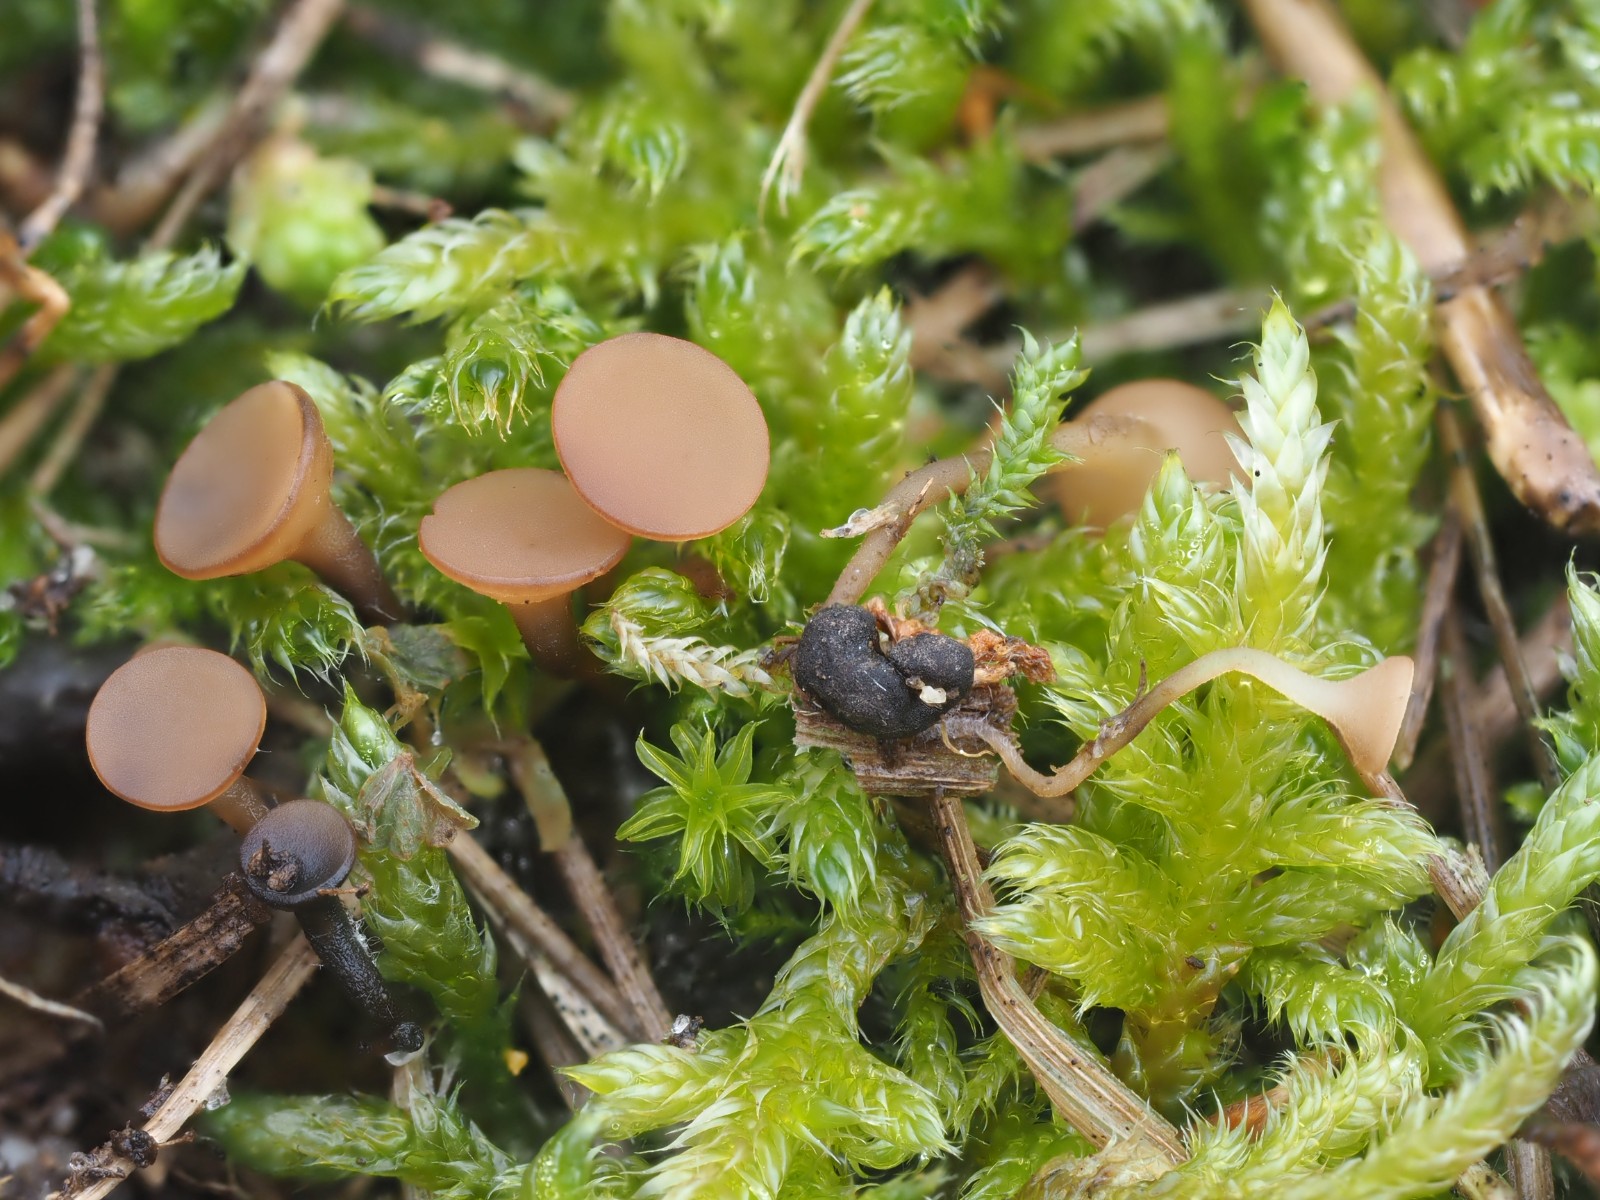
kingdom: Fungi
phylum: Ascomycota
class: Leotiomycetes
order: Helotiales
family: Sclerotiniaceae
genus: Sclerotinia
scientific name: Sclerotinia trifoliorum
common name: ærte-knoldskive
